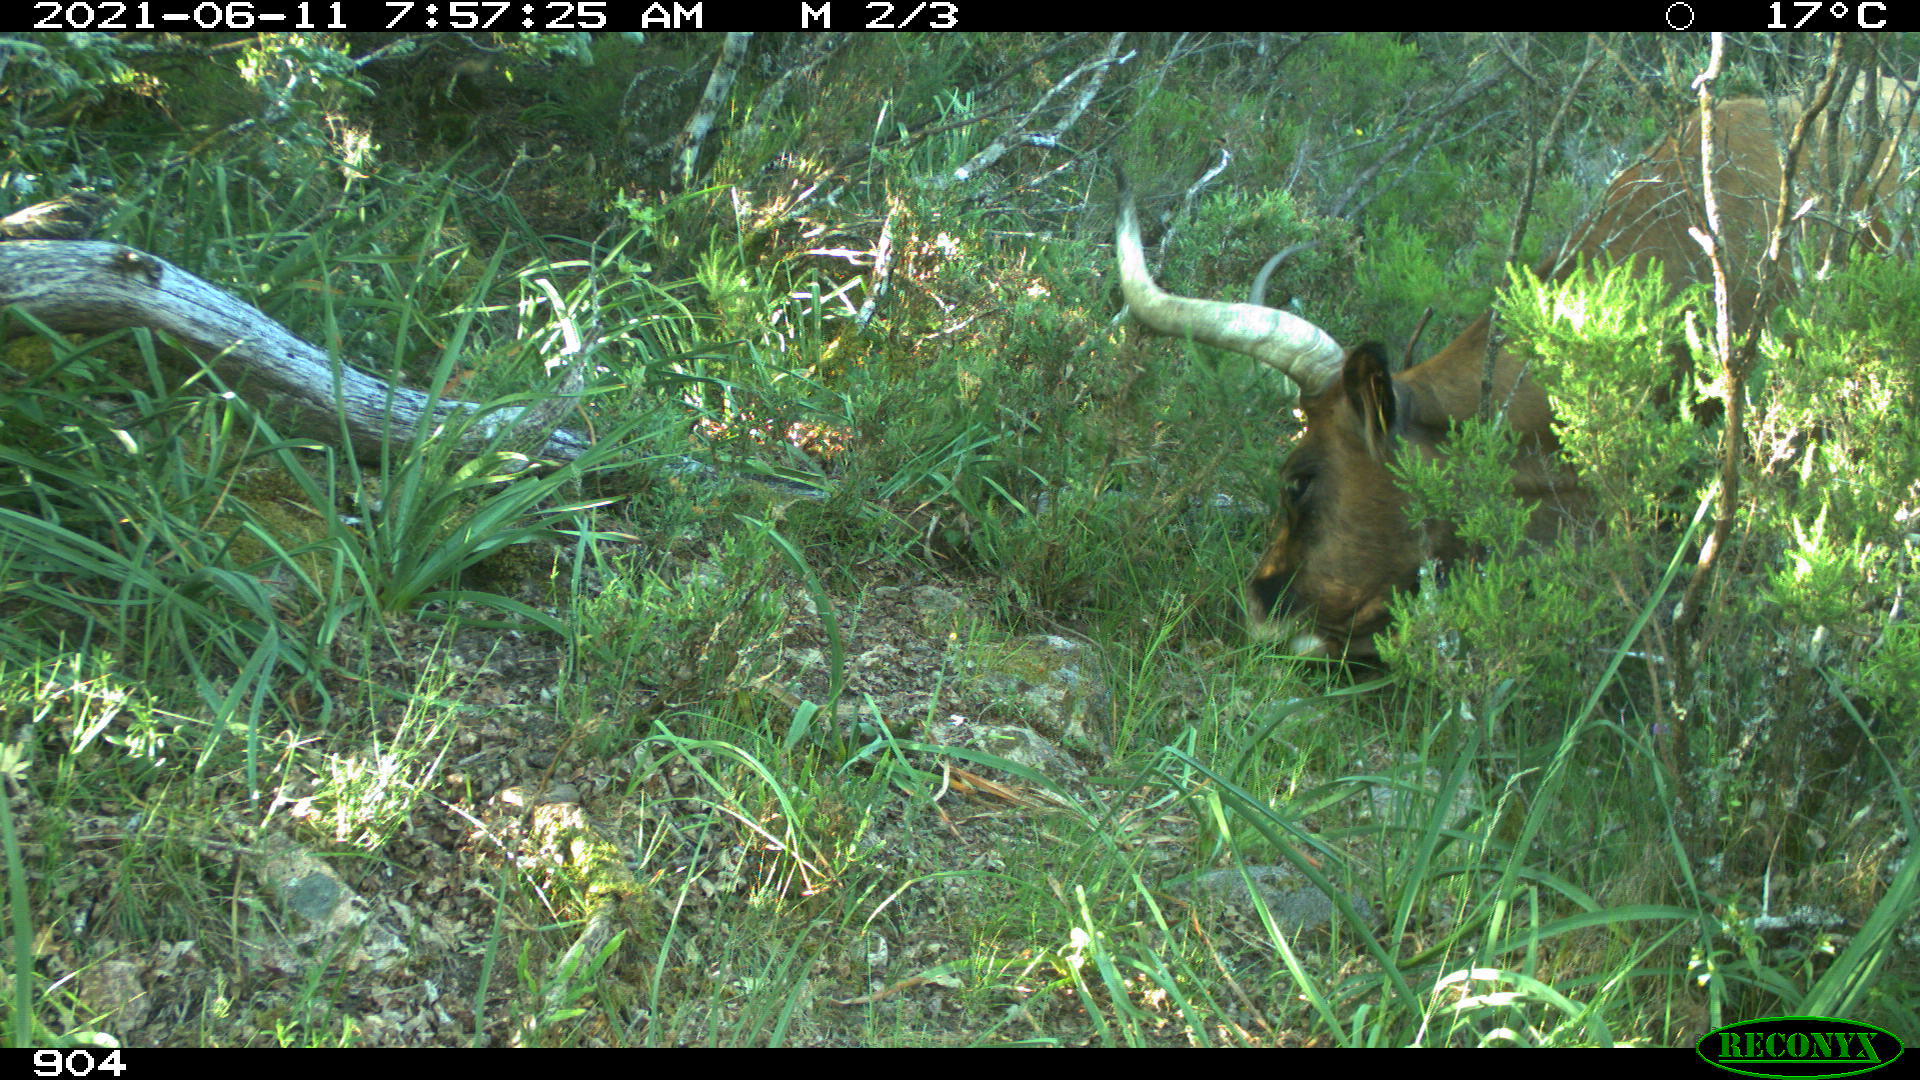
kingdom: Animalia
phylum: Chordata
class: Mammalia
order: Artiodactyla
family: Bovidae
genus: Bos
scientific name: Bos taurus
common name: Domesticated cattle
